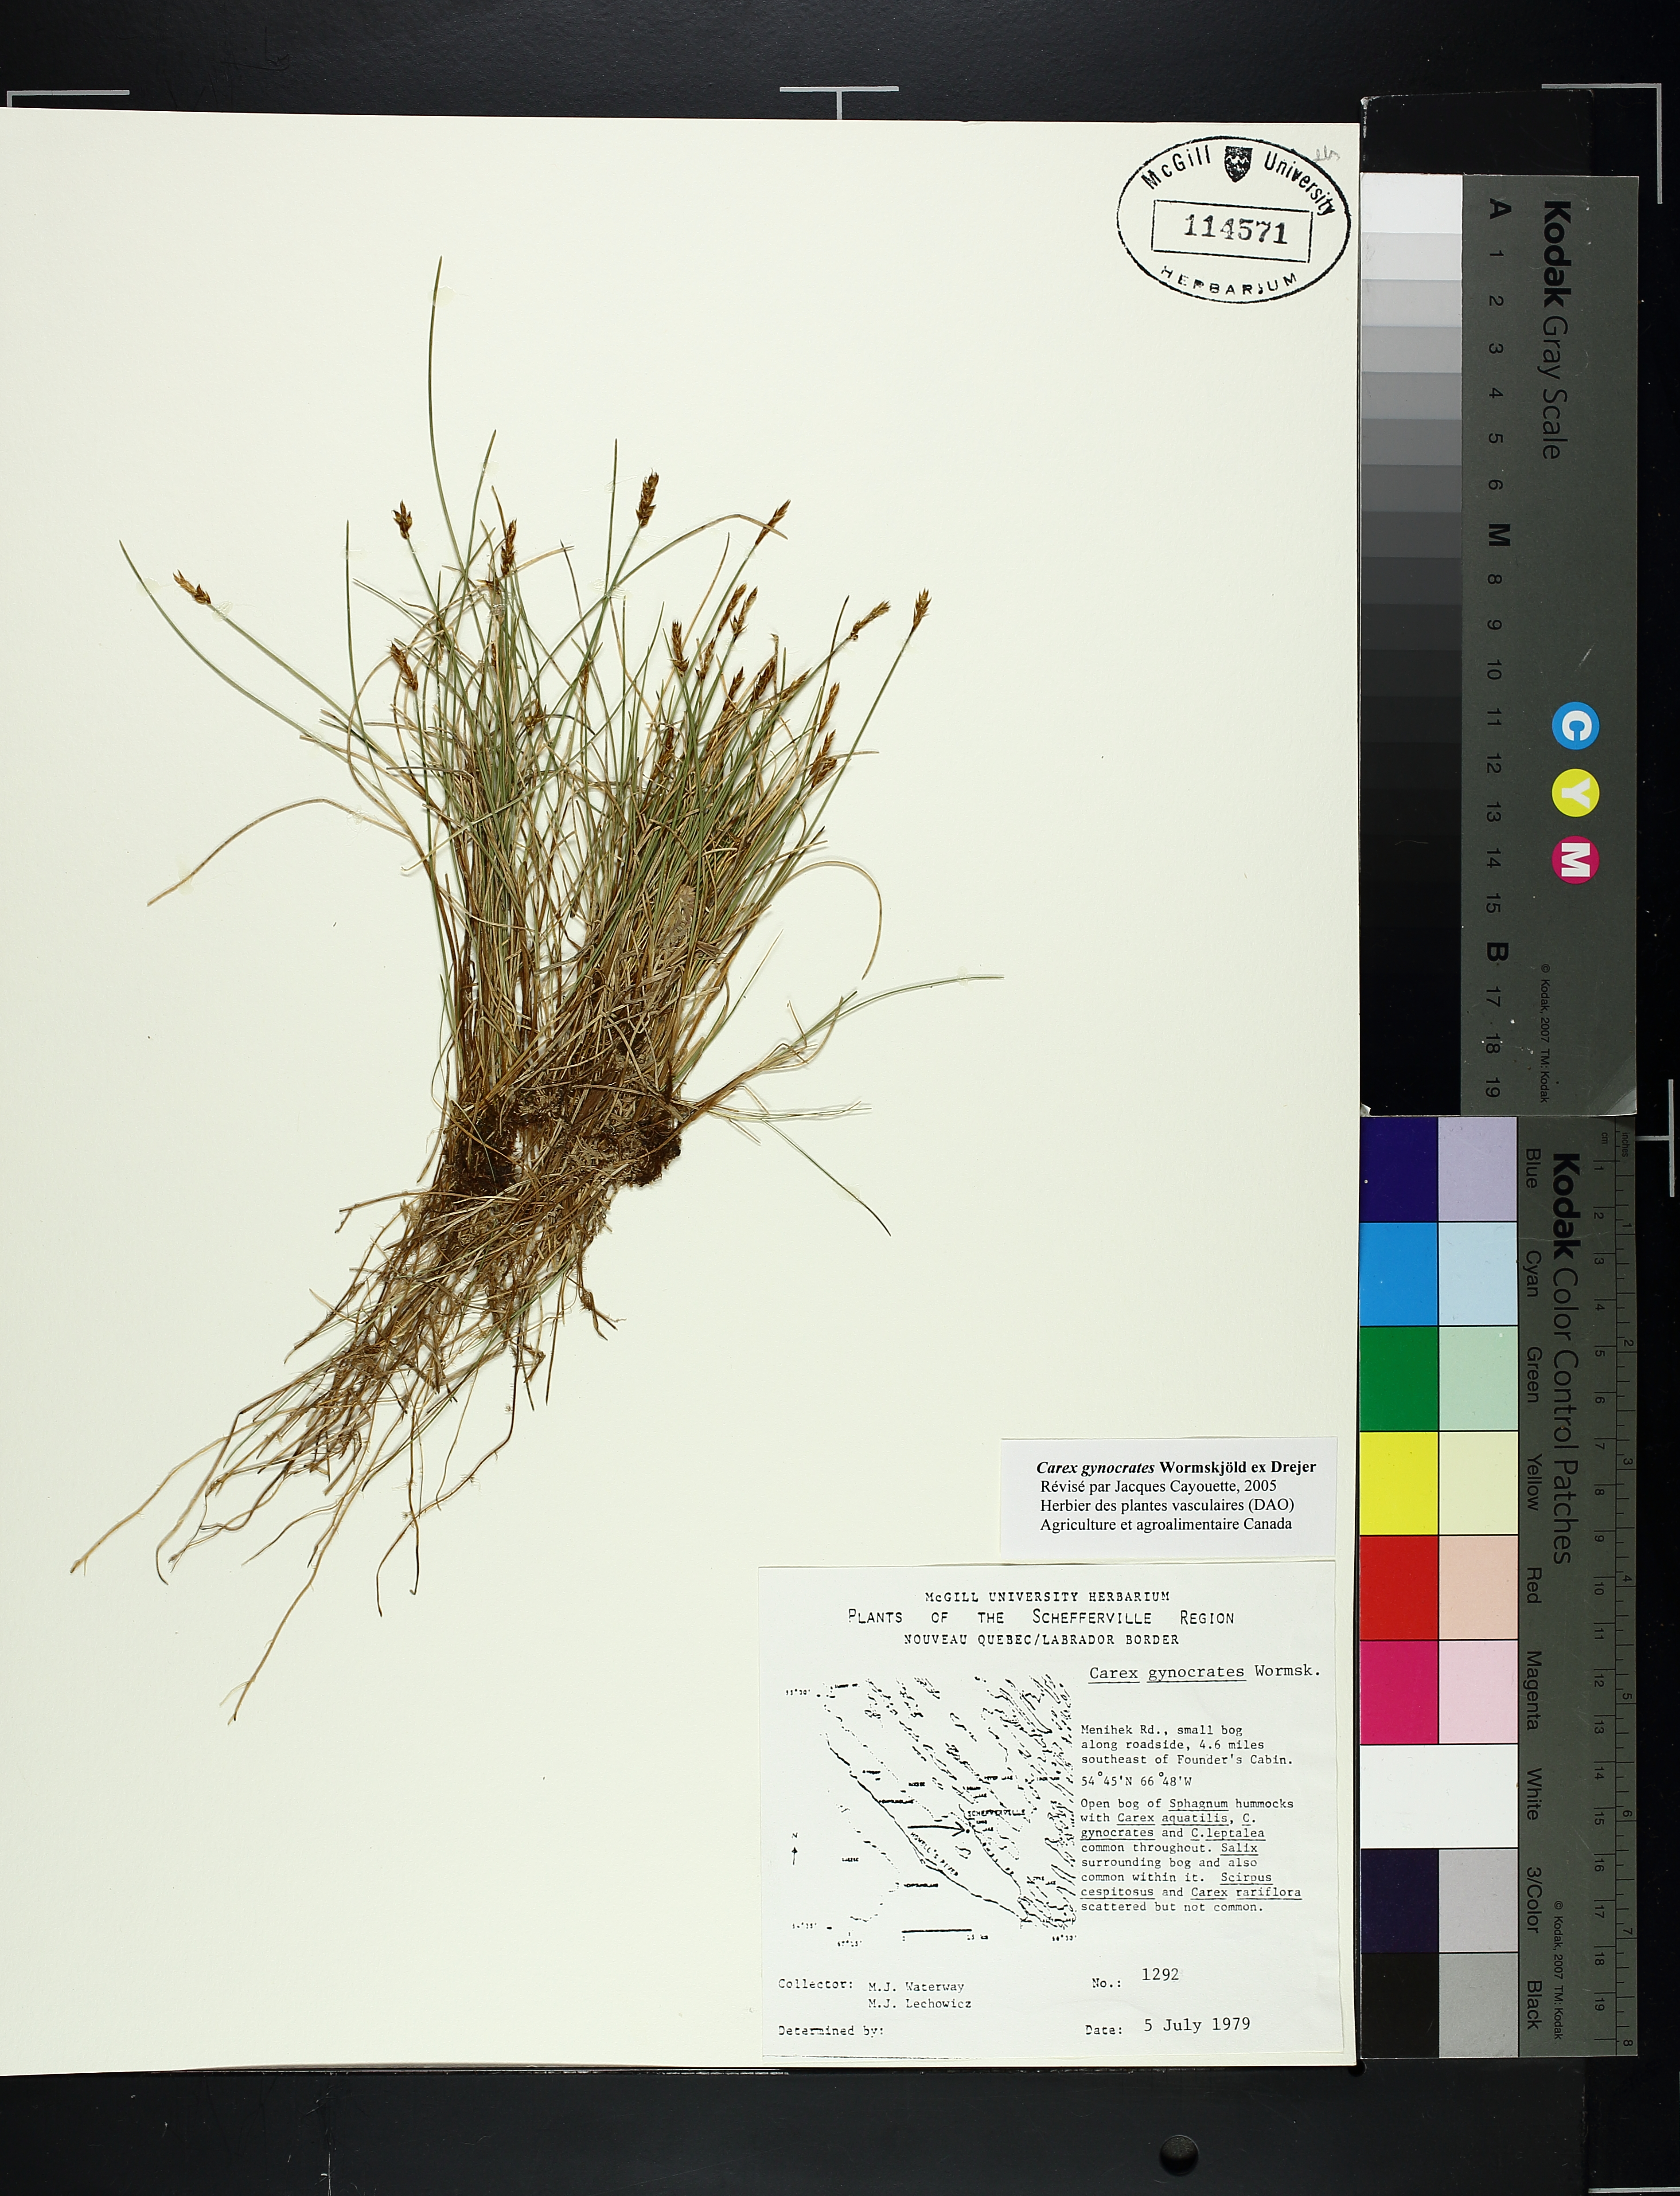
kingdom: Plantae
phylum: Tracheophyta
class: Liliopsida
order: Poales
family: Cyperaceae
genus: Carex
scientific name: Carex gynocrates
